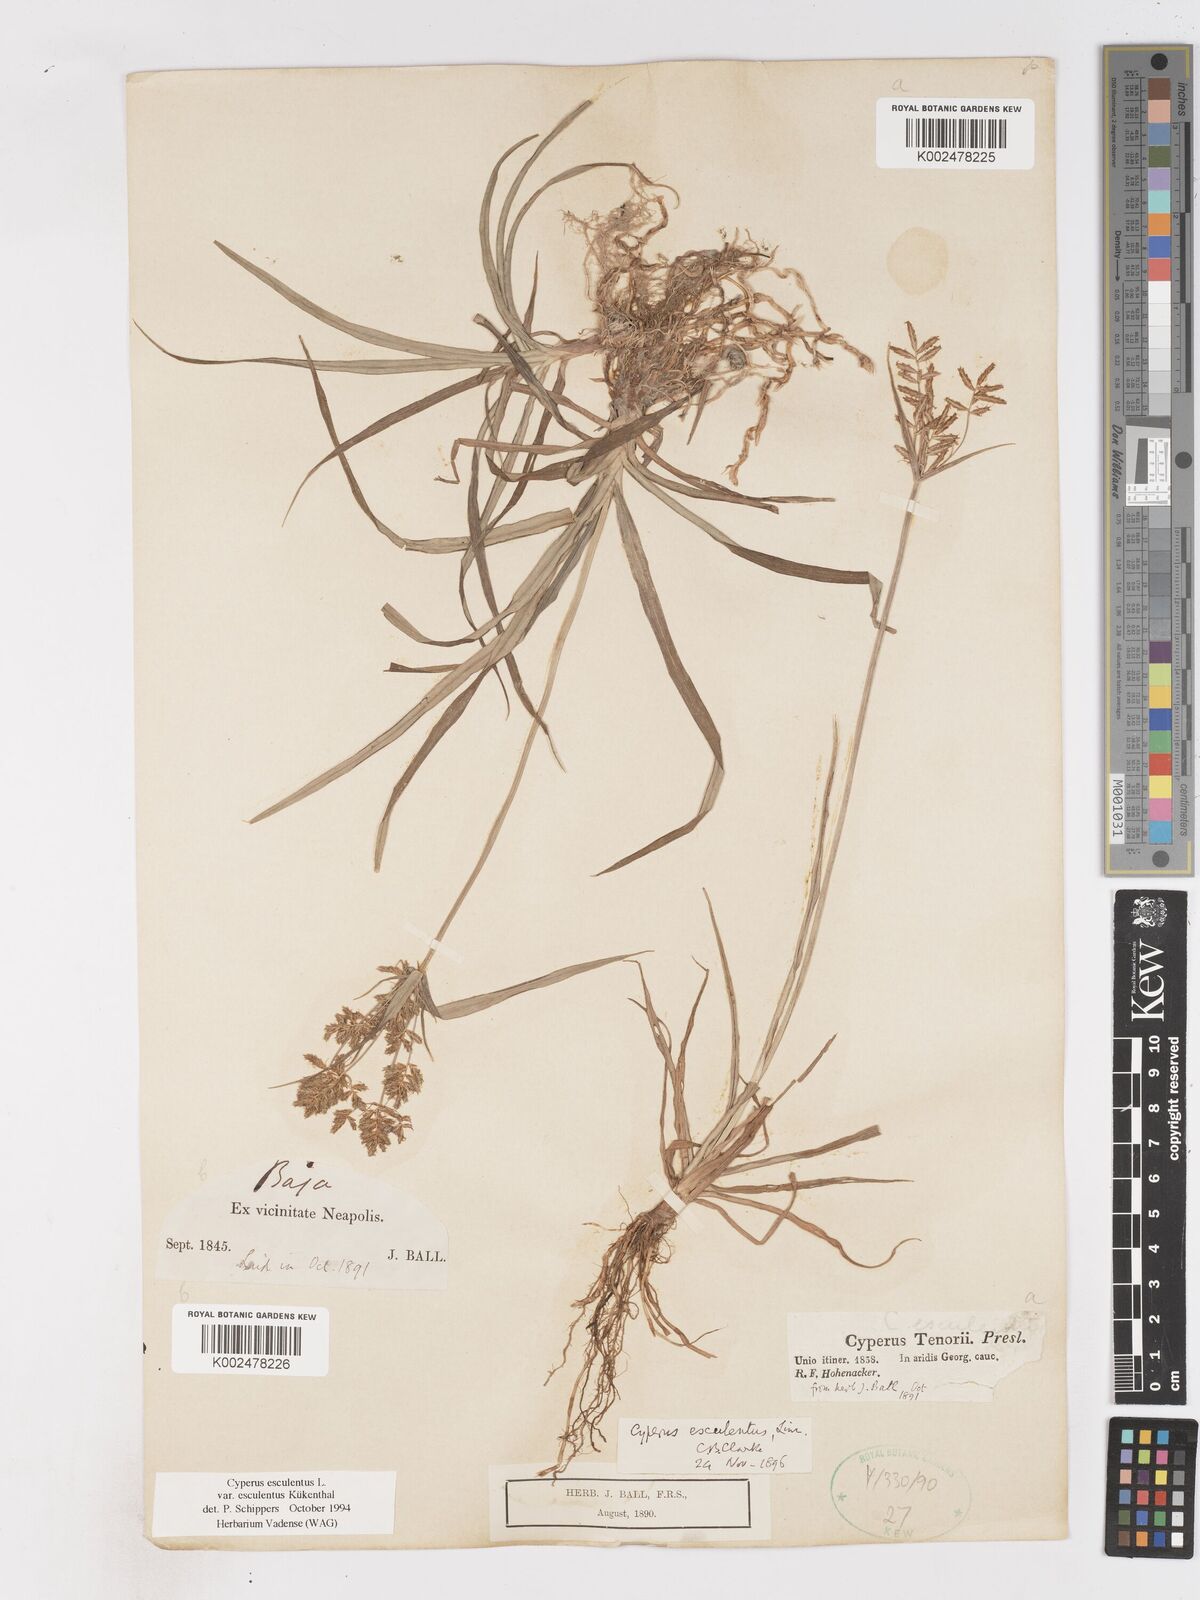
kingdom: Plantae
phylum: Tracheophyta
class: Liliopsida
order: Poales
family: Cyperaceae
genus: Cyperus
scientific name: Cyperus esculentus
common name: Yellow nutsedge
